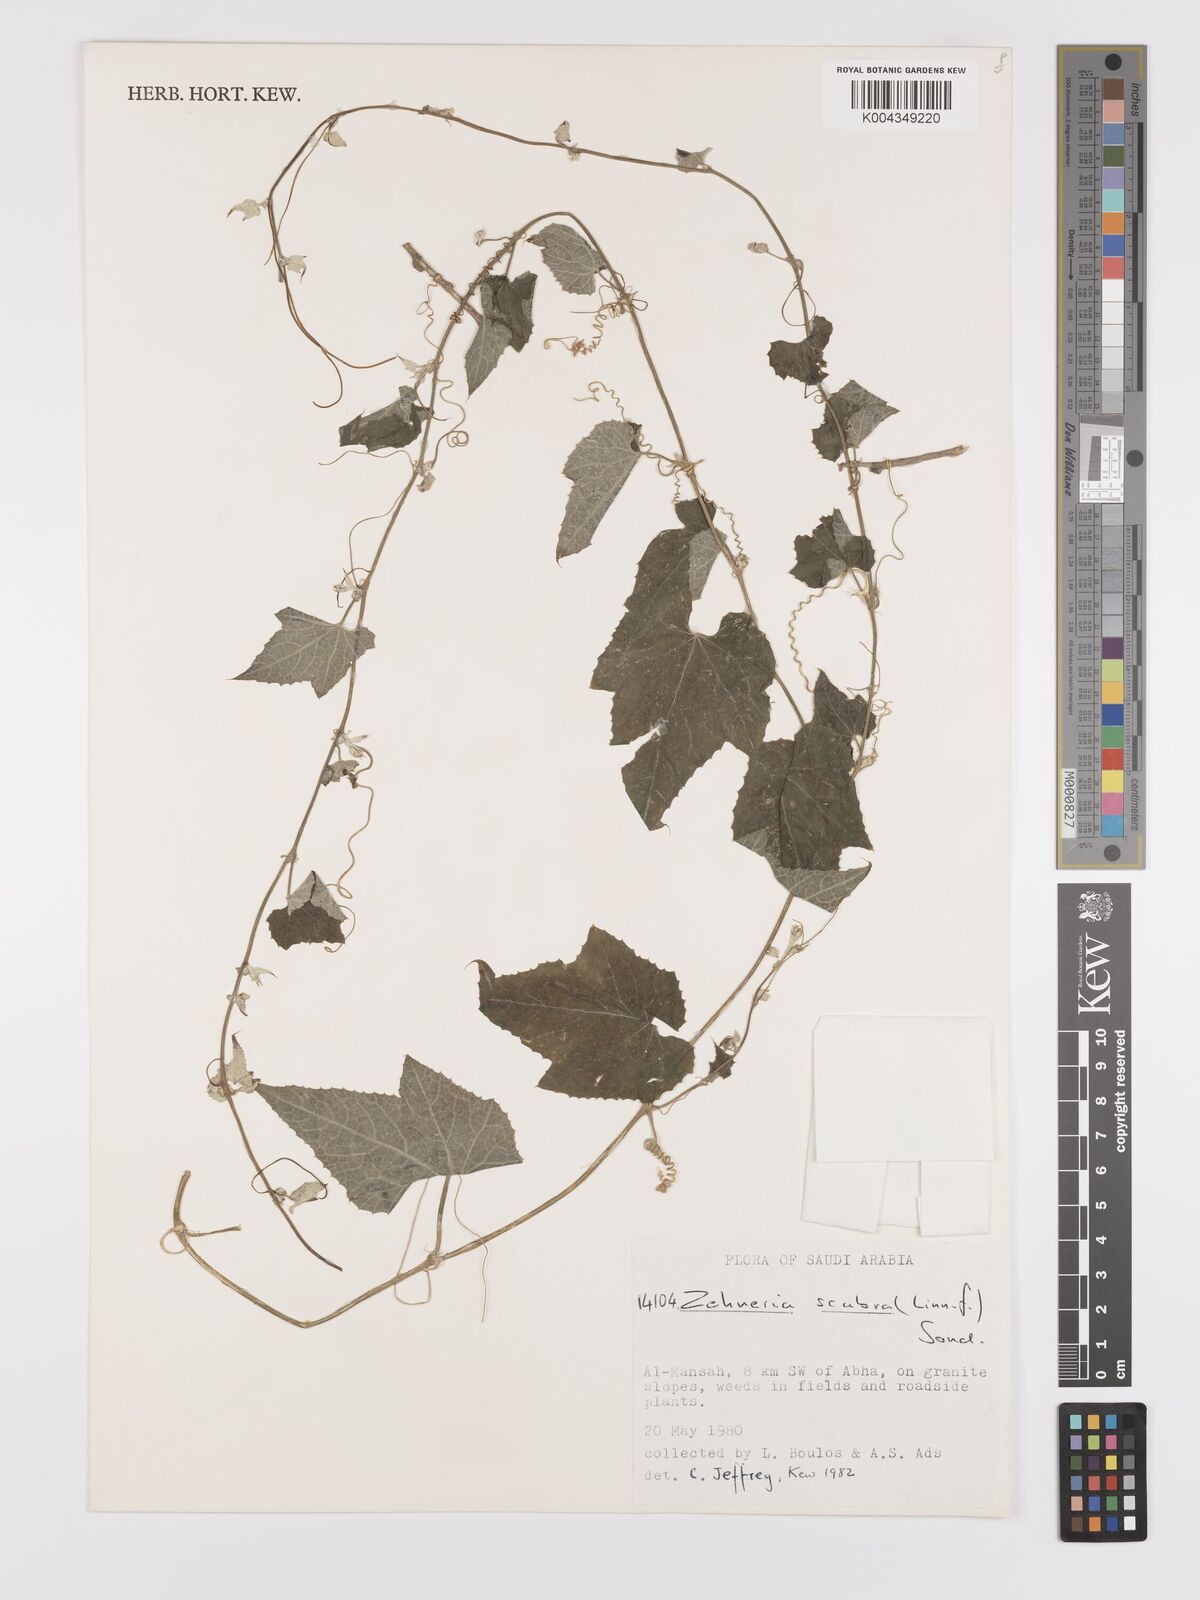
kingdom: Plantae
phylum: Tracheophyta
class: Magnoliopsida
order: Cucurbitales
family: Cucurbitaceae
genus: Zehneria
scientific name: Zehneria scabra
